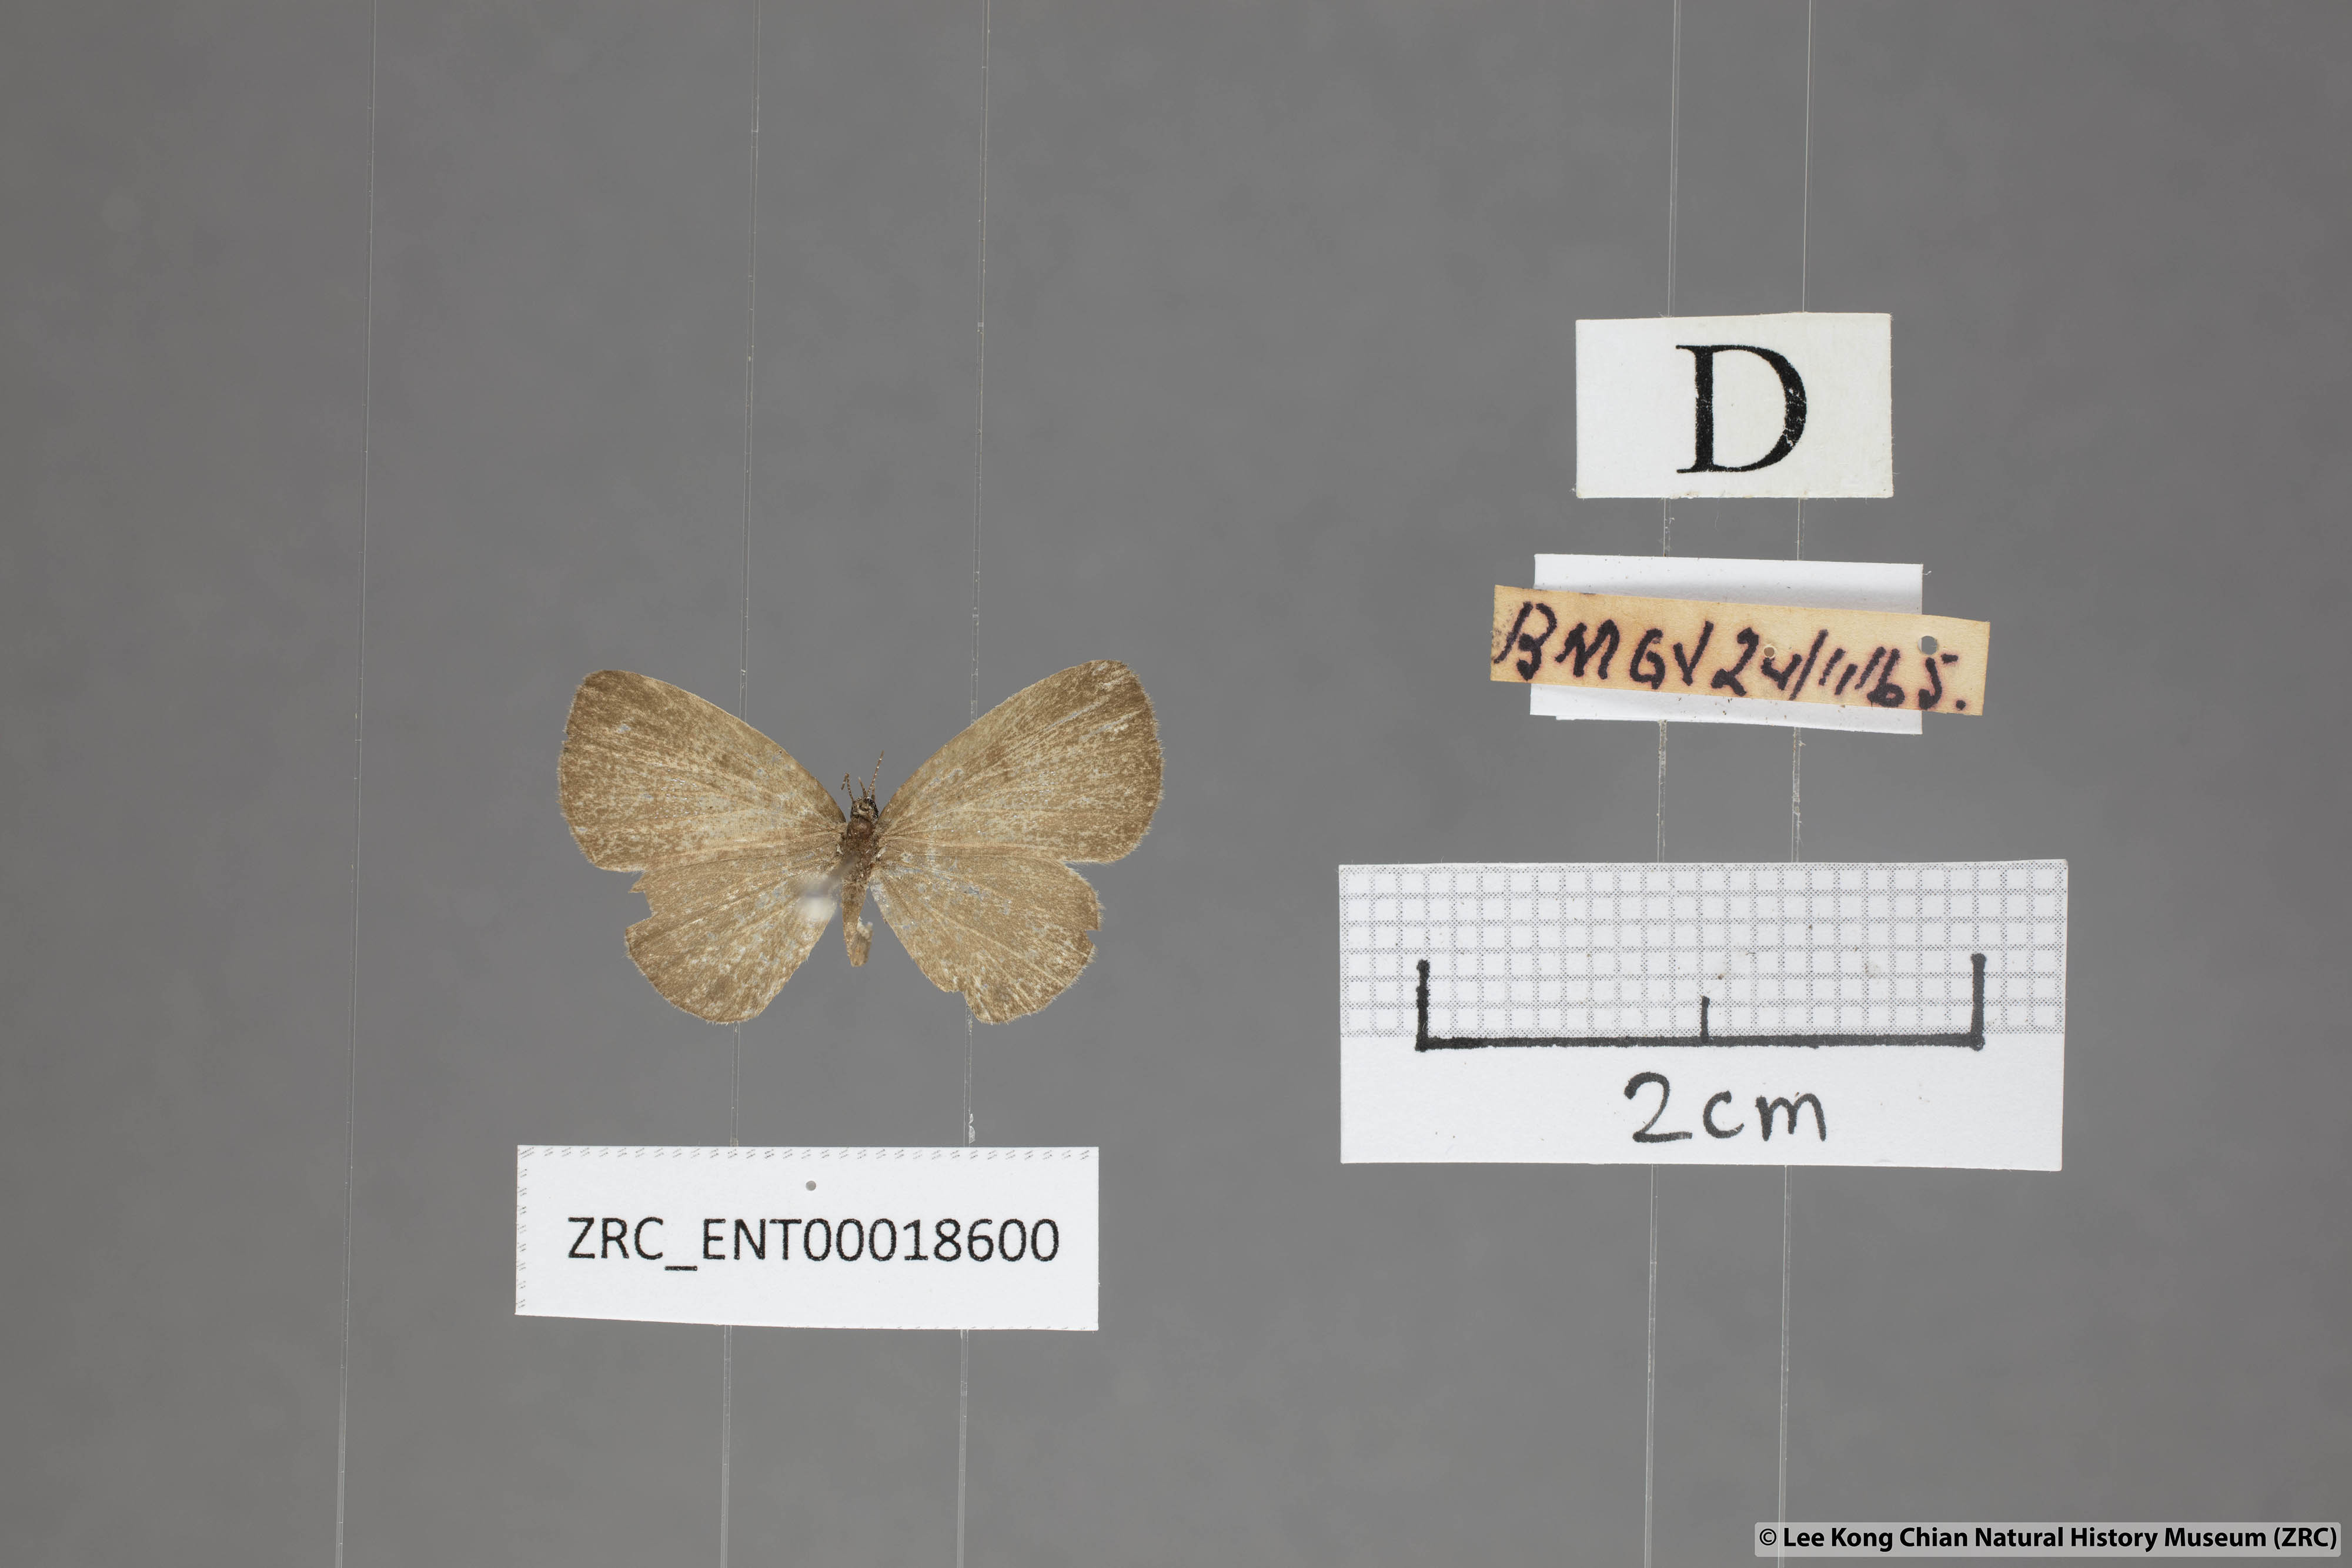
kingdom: Animalia
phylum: Arthropoda
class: Insecta
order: Lepidoptera
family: Lycaenidae
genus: Prosotas
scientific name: Prosotas lutea
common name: Brown lineblue
